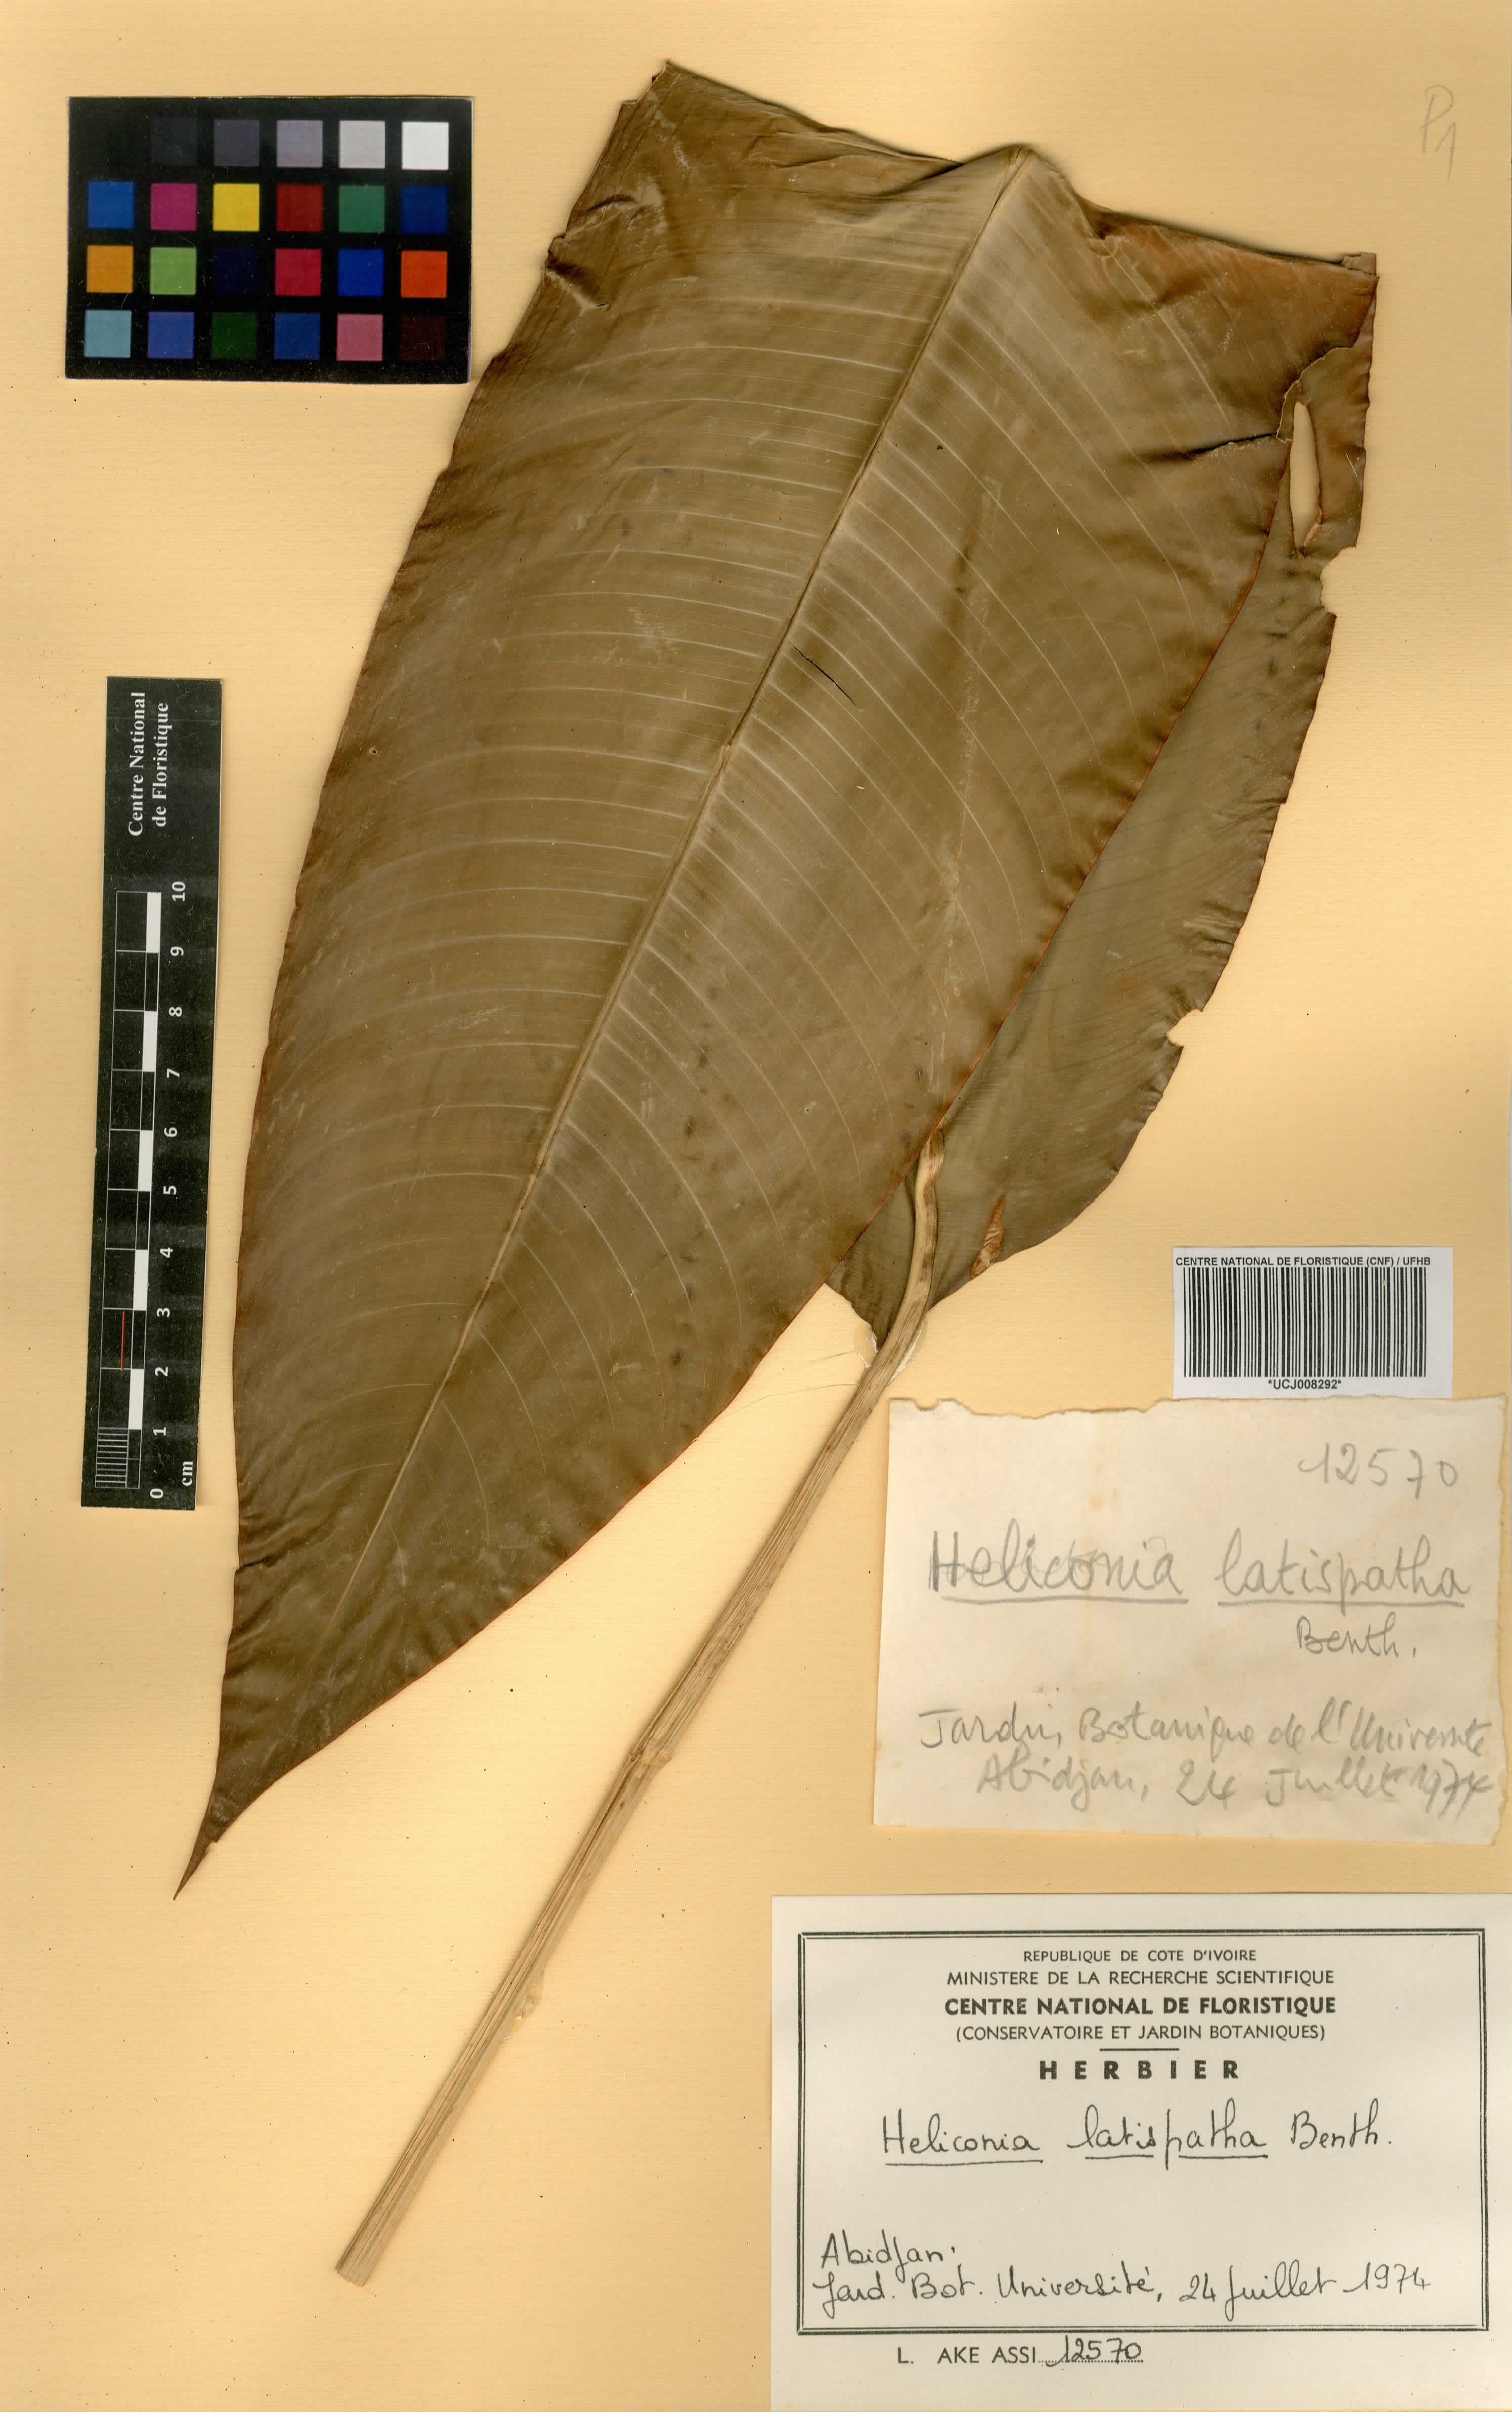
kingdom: Plantae
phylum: Tracheophyta
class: Liliopsida
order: Zingiberales
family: Heliconiaceae
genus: Heliconia
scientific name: Heliconia latispatha
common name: Expanded lobsterclaw
